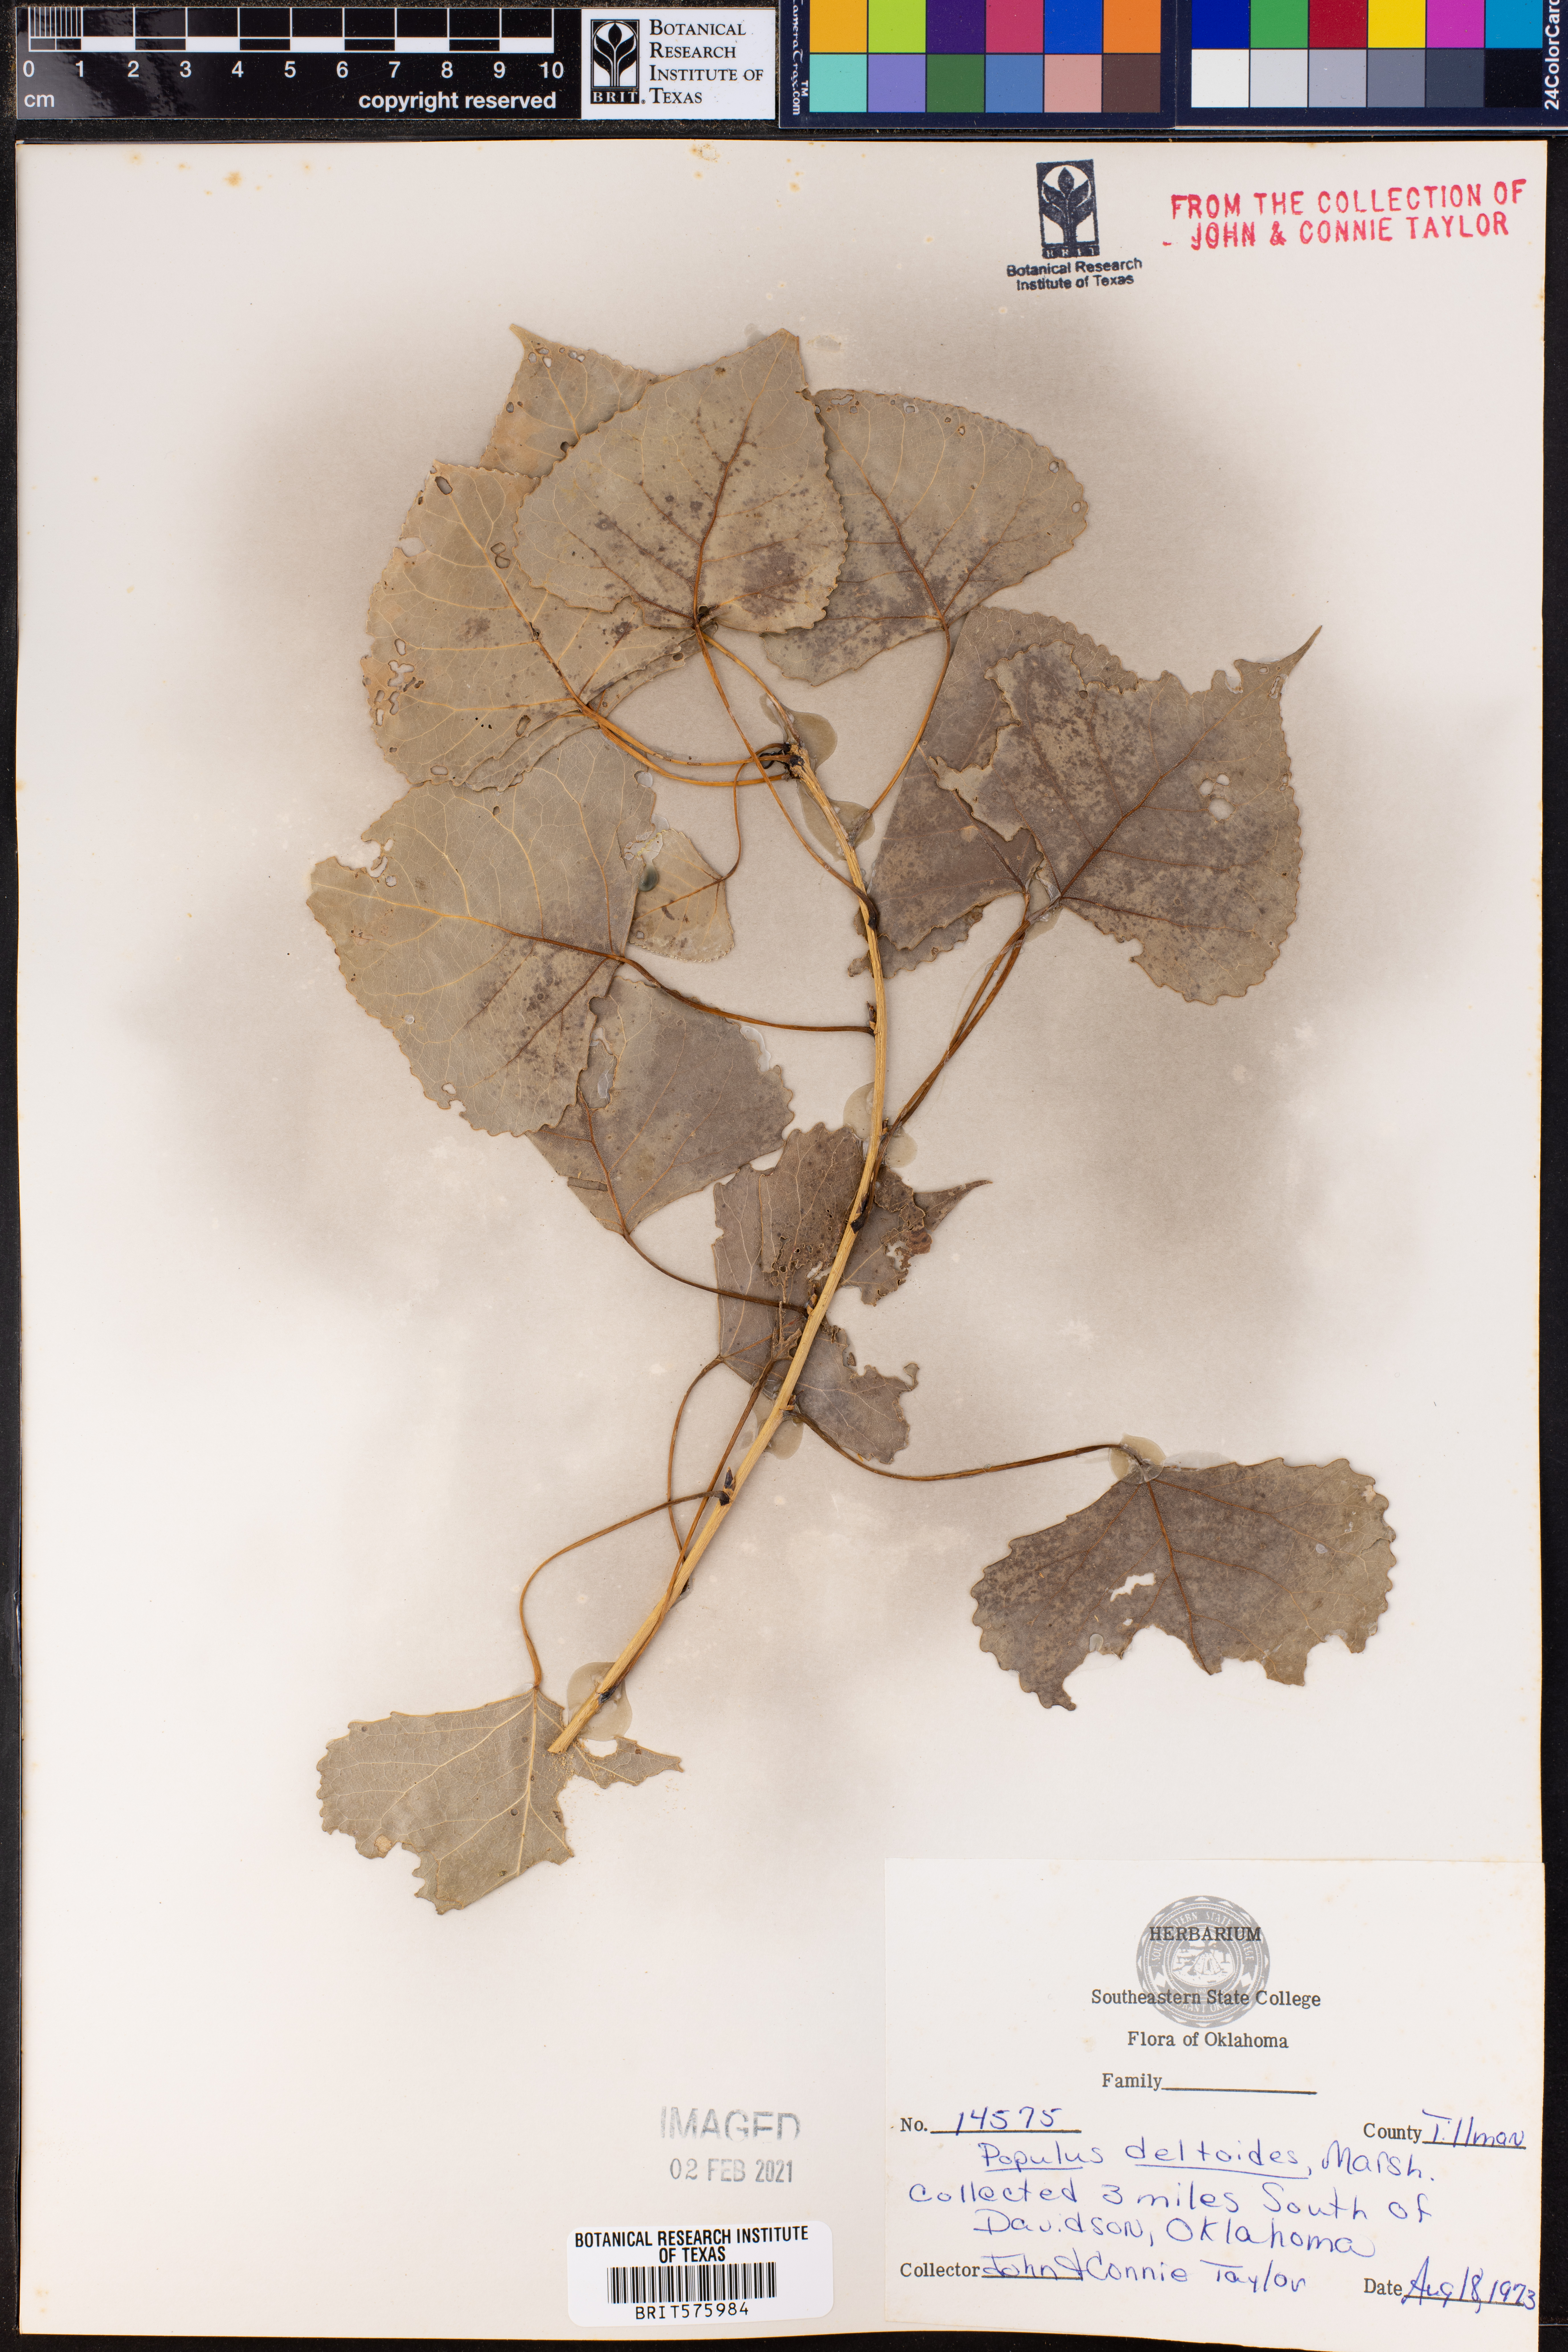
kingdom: Plantae
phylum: Tracheophyta
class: Magnoliopsida
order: Malpighiales
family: Salicaceae
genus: Populus
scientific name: Populus deltoides
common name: Eastern cottonwood
